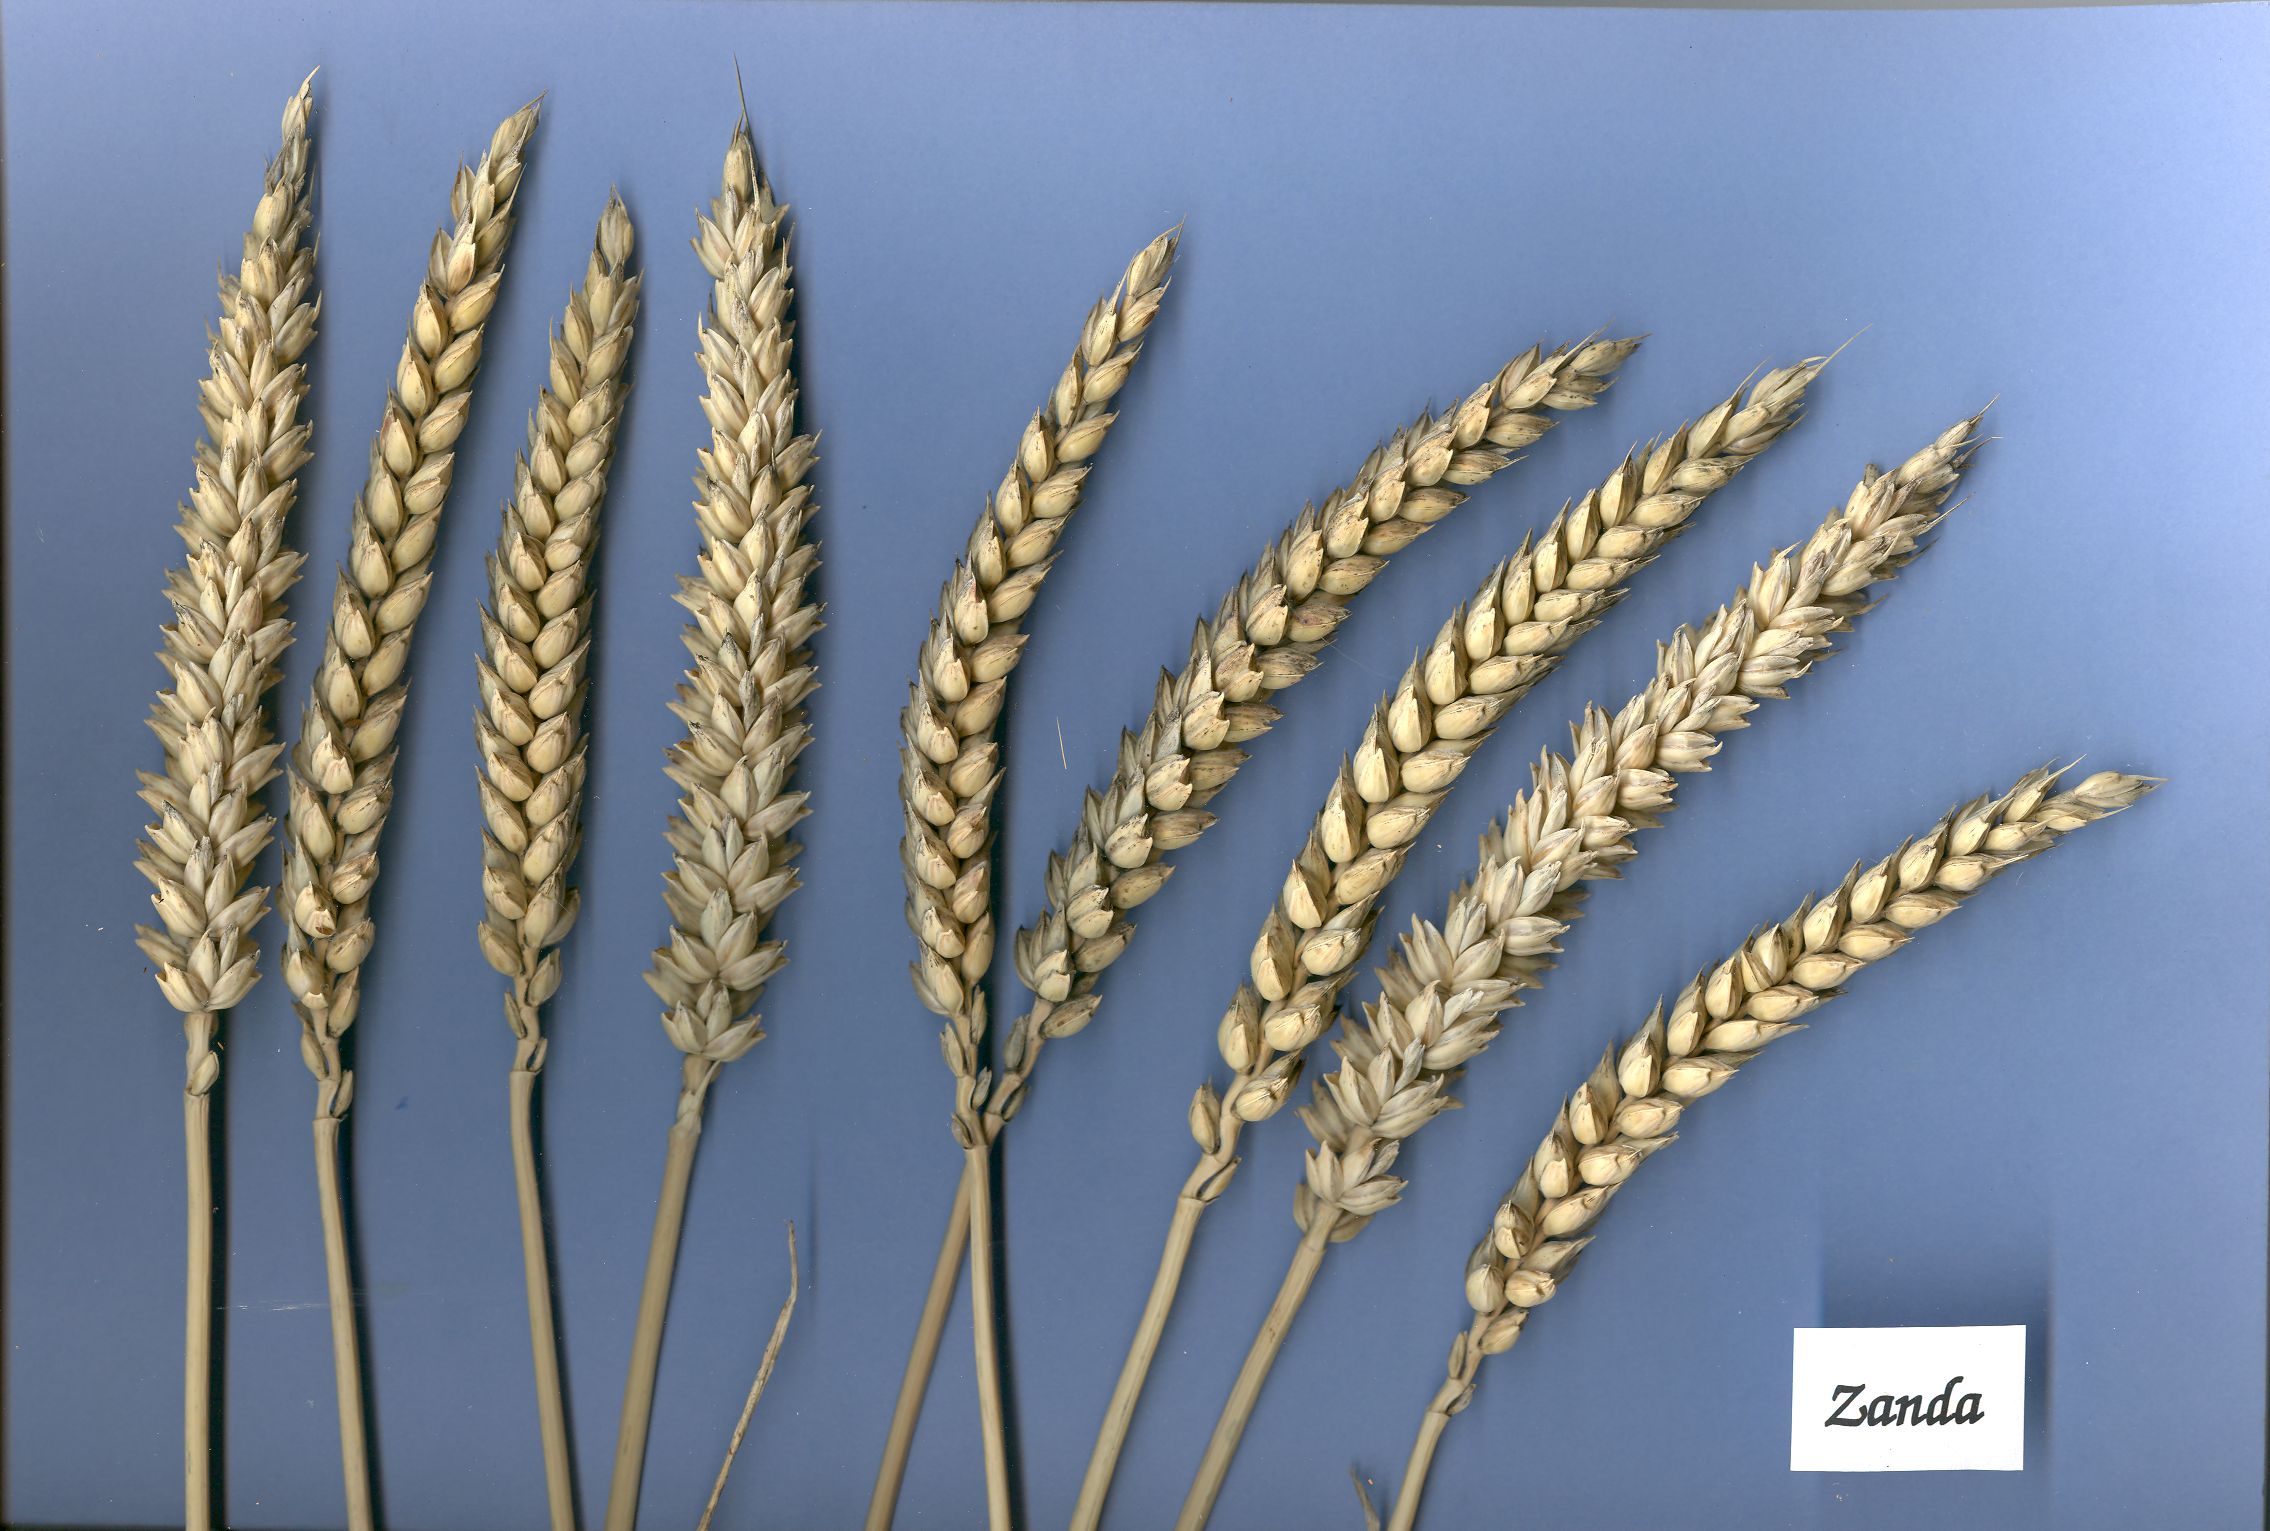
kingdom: Plantae
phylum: Tracheophyta
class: Liliopsida
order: Poales
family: Poaceae
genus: Triticum
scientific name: Triticum aestivum
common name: Common wheat
